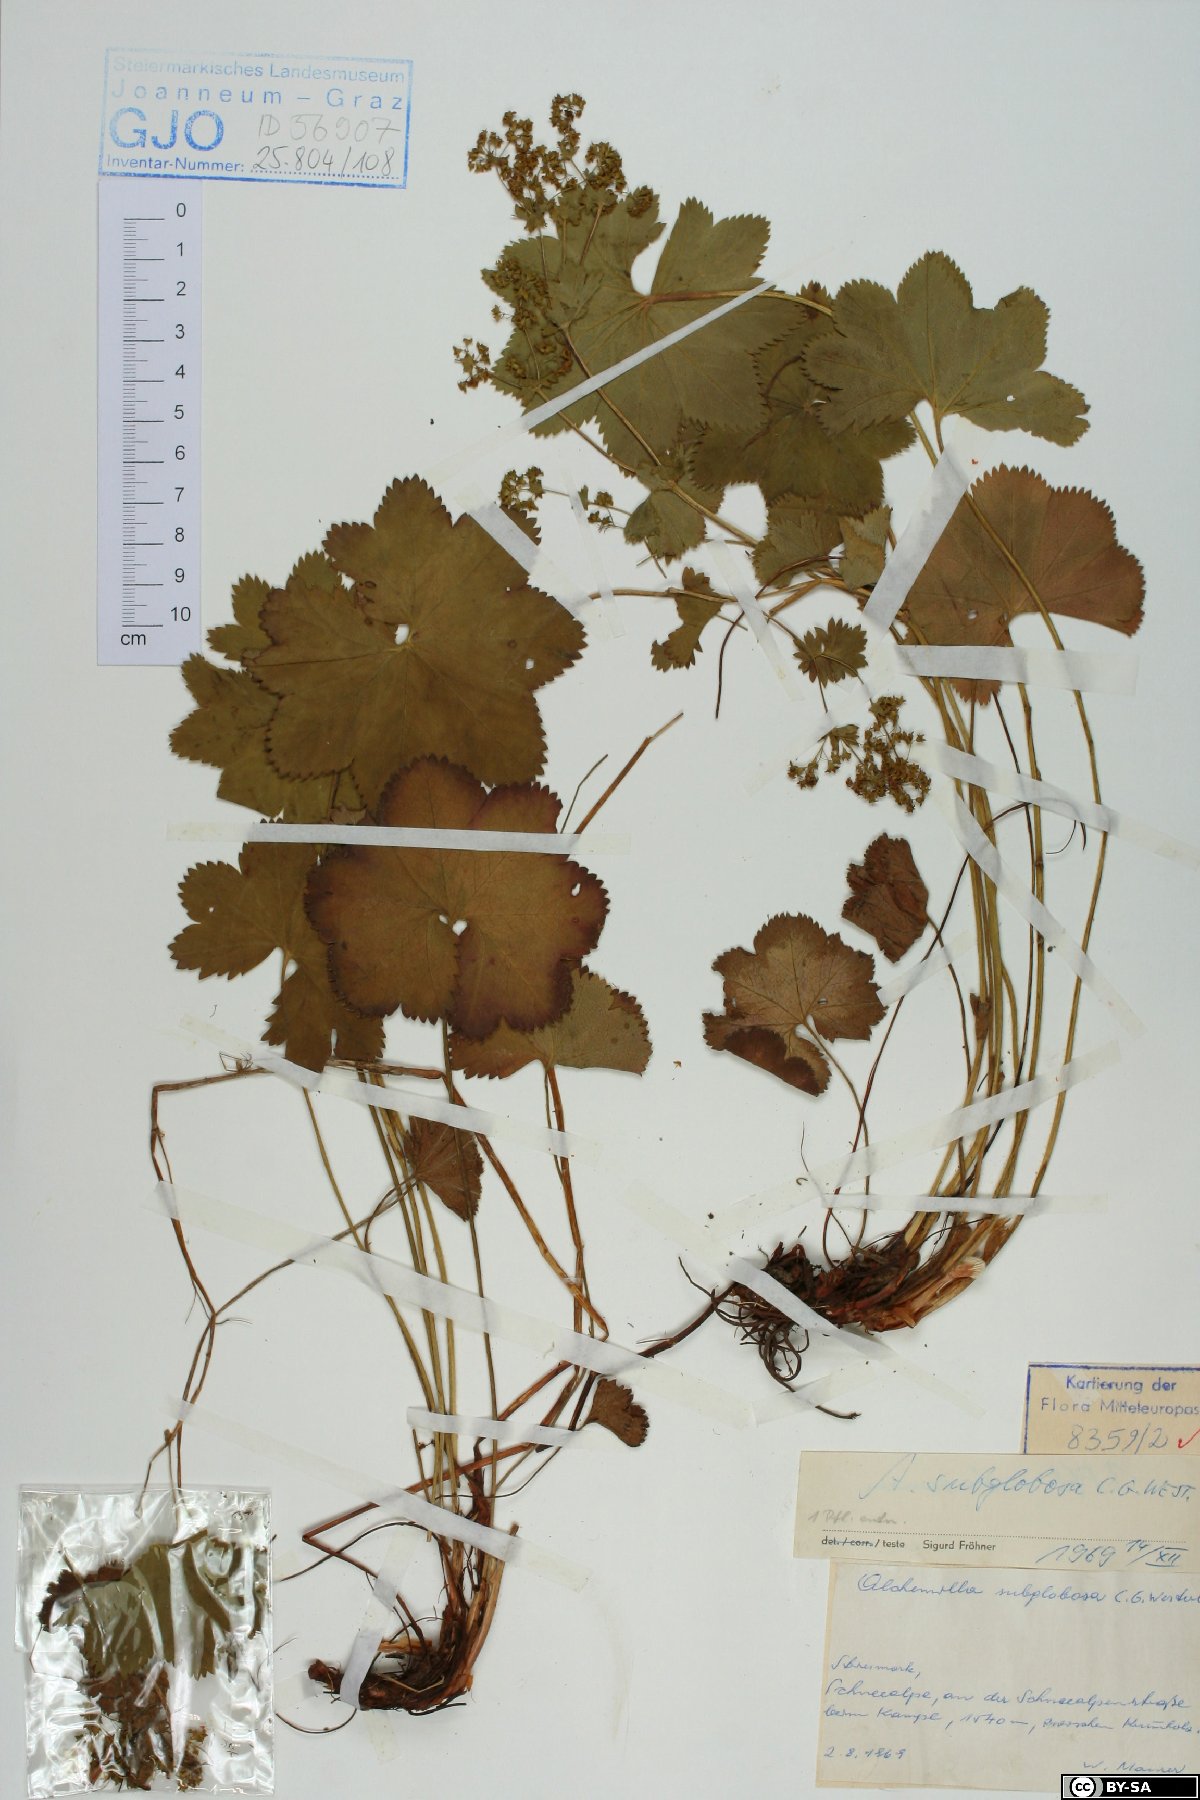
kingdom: Plantae
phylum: Tracheophyta
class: Magnoliopsida
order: Rosales
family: Rosaceae
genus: Alchemilla
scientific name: Alchemilla subglobosa
